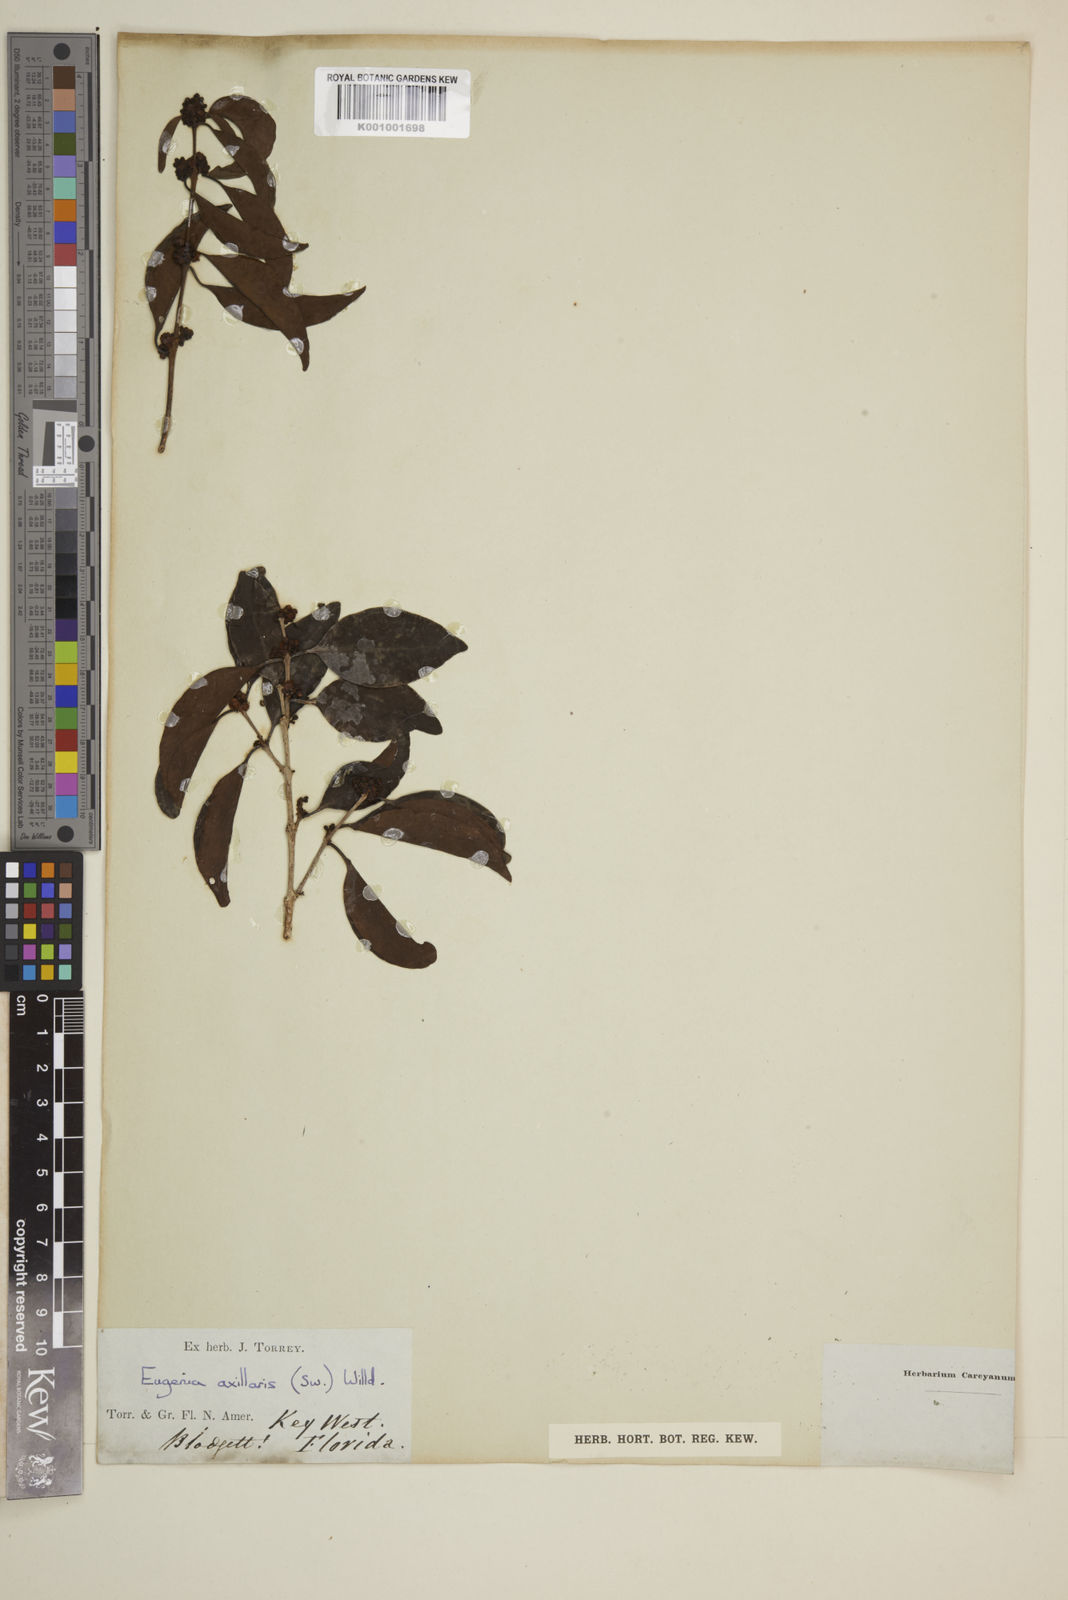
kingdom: Plantae
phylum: Tracheophyta
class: Magnoliopsida
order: Myrtales
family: Myrtaceae
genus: Eugenia
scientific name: Eugenia axillaris
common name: Choaky berry
